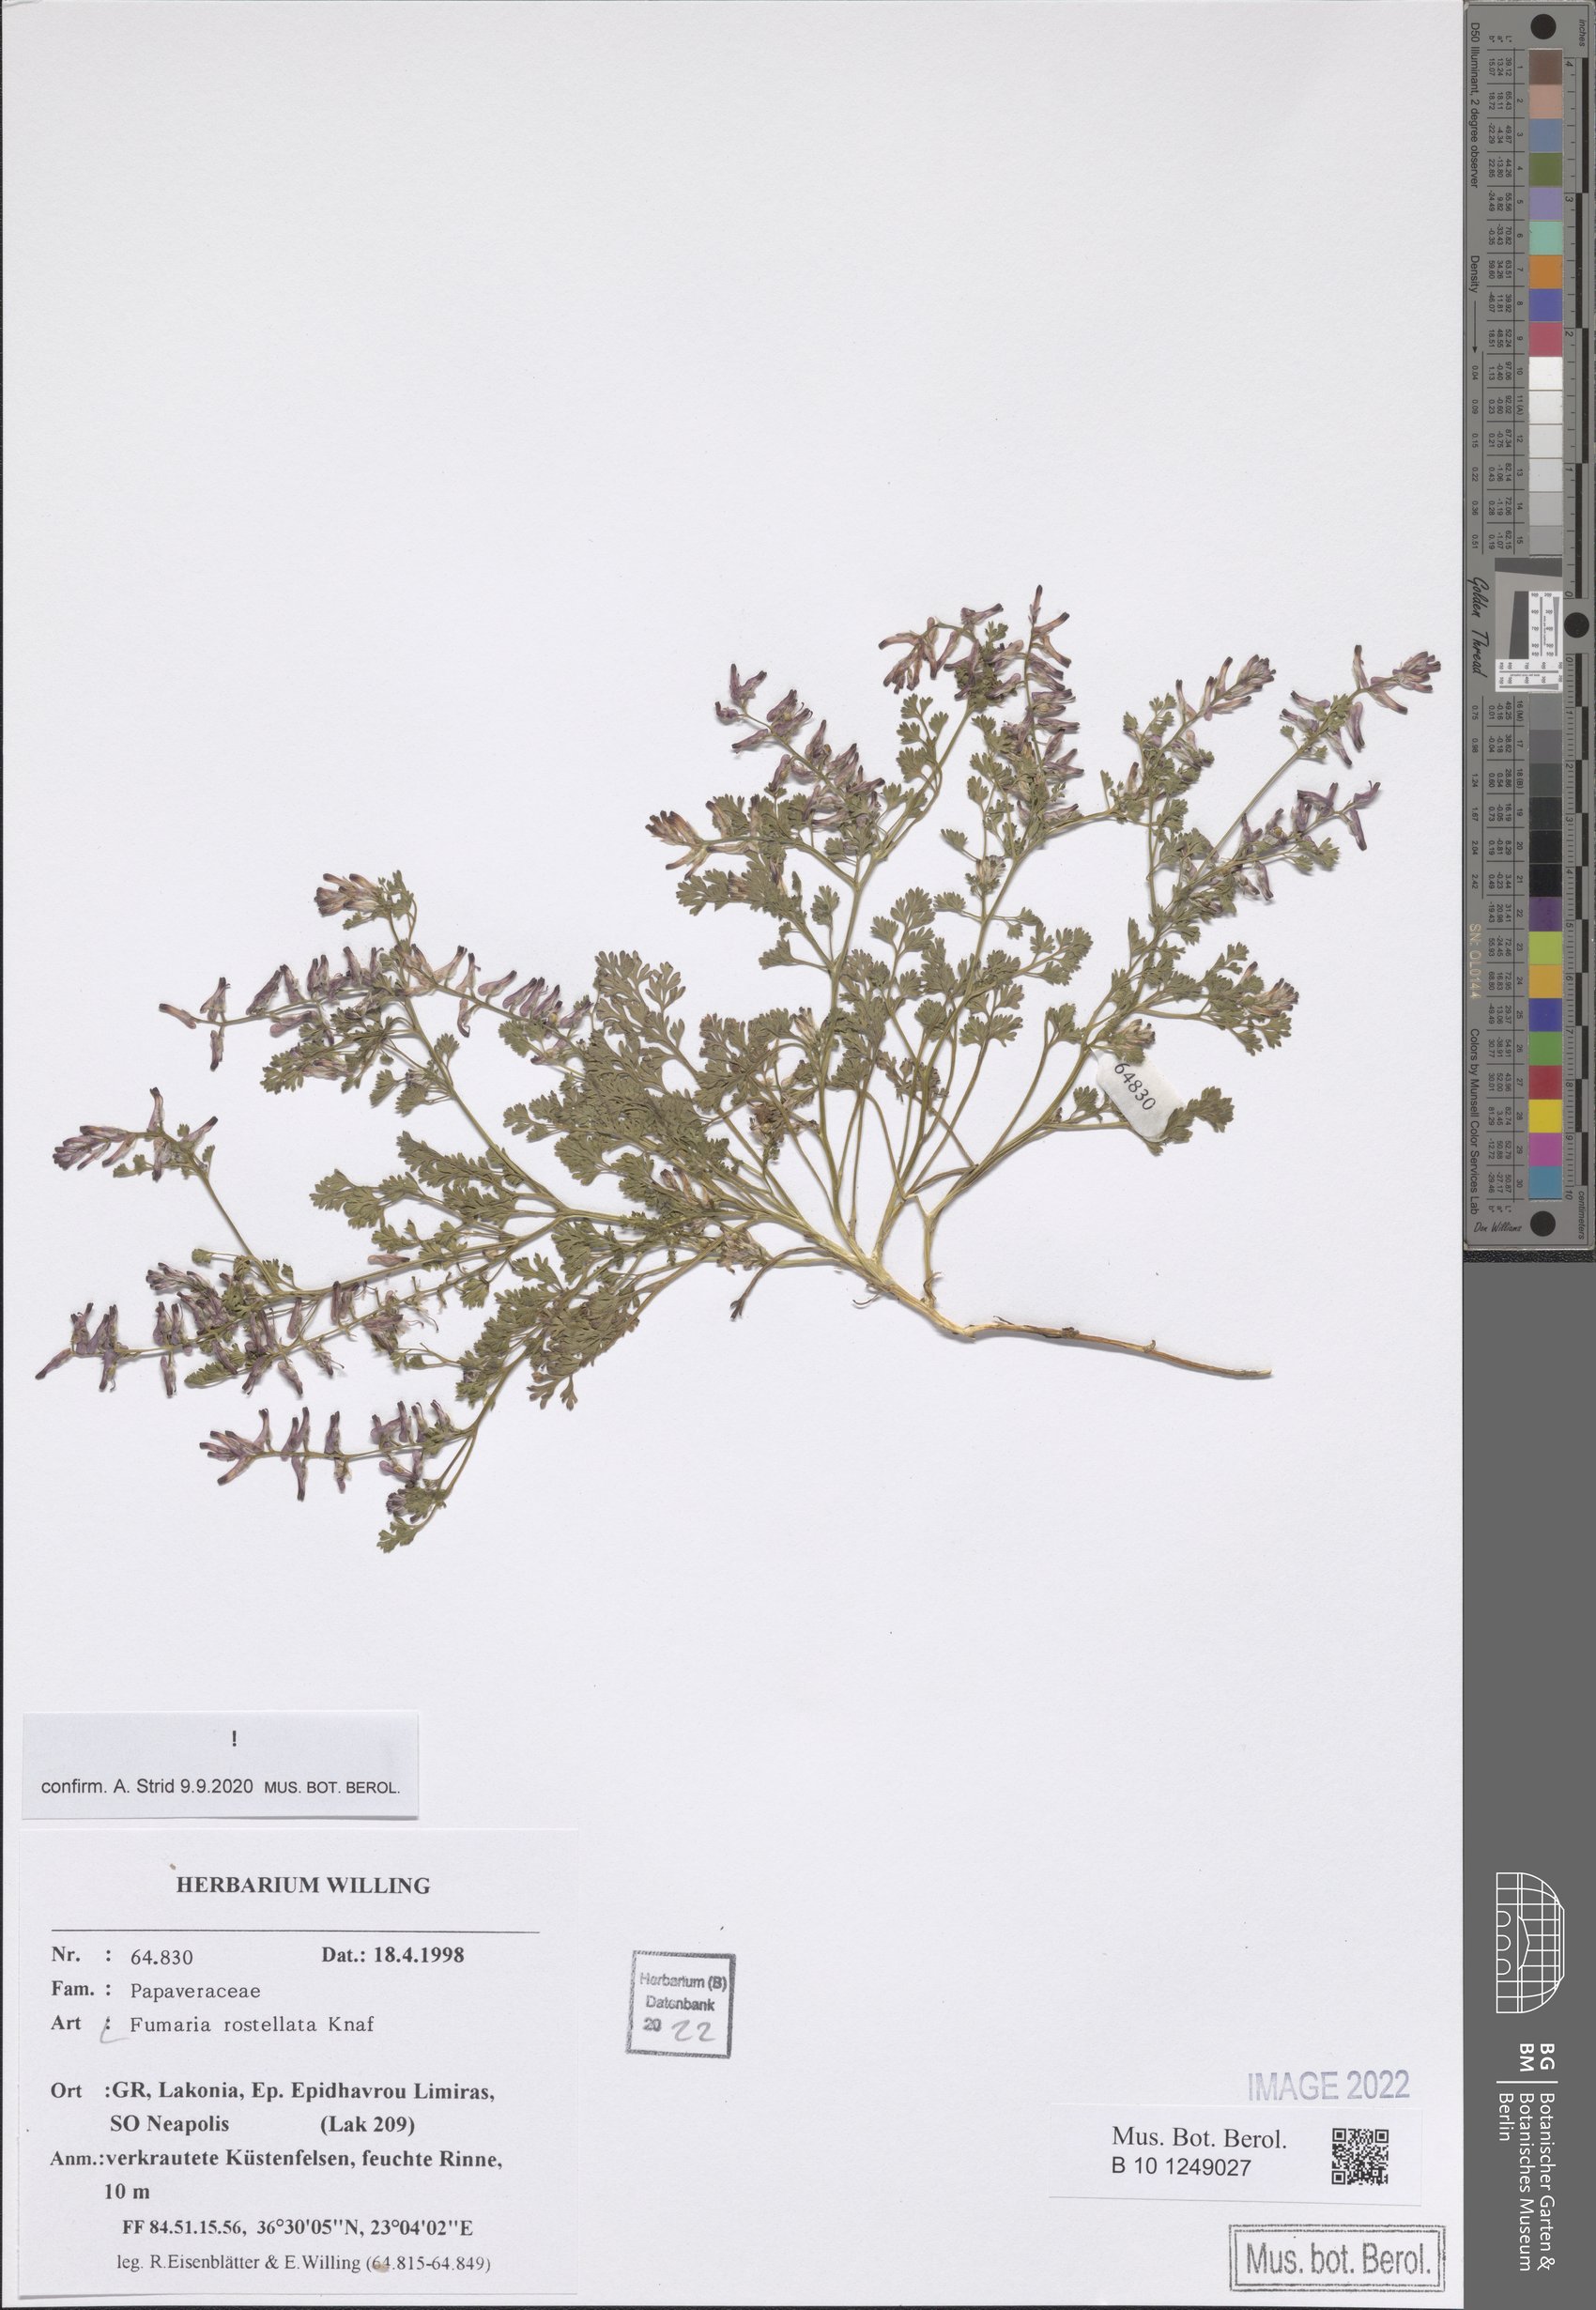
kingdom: Plantae
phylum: Tracheophyta
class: Magnoliopsida
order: Ranunculales
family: Papaveraceae
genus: Fumaria
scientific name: Fumaria rostellata
